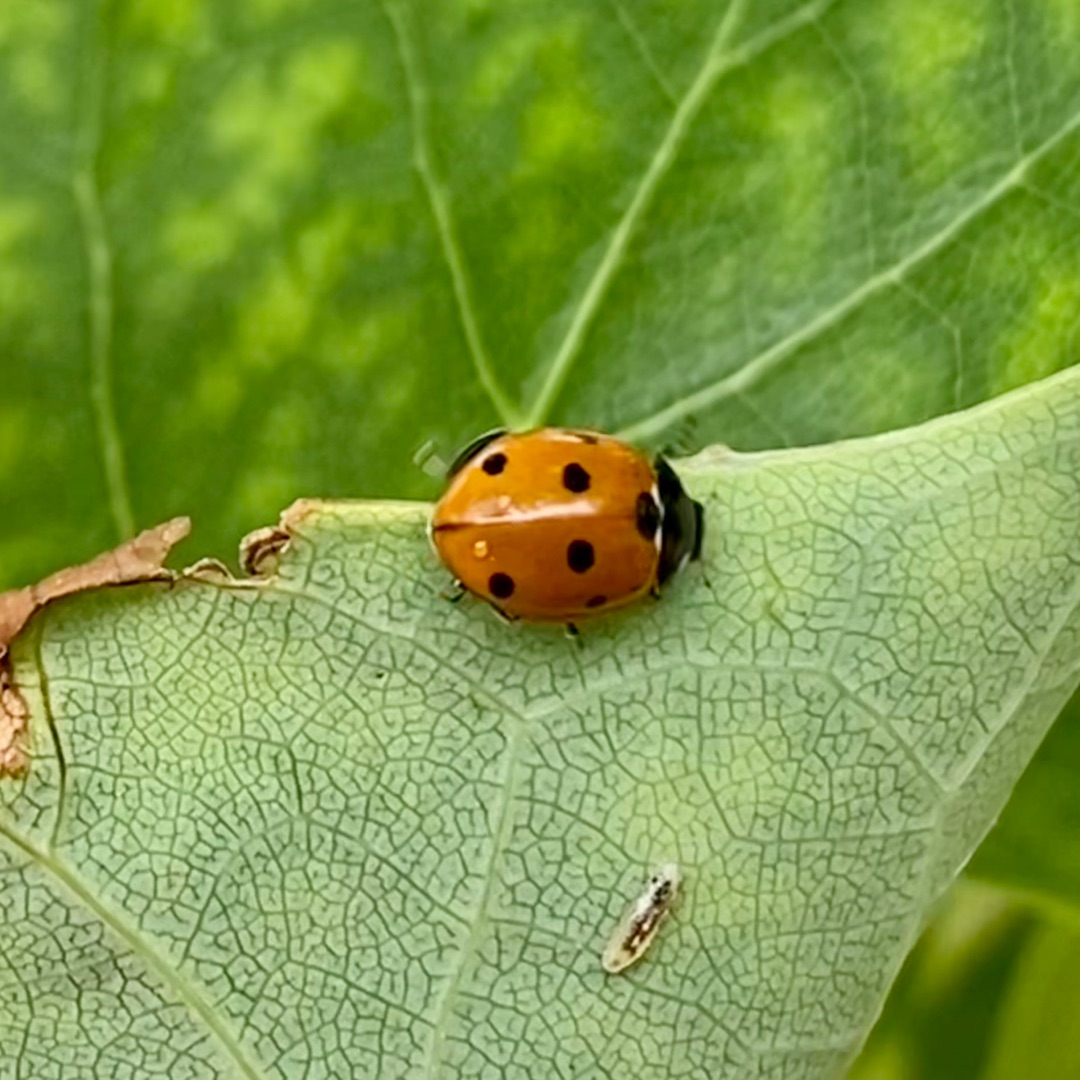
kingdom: Animalia
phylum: Arthropoda
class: Insecta
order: Coleoptera
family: Coccinellidae
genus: Coccinella
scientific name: Coccinella septempunctata
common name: Syvplettet mariehøne
